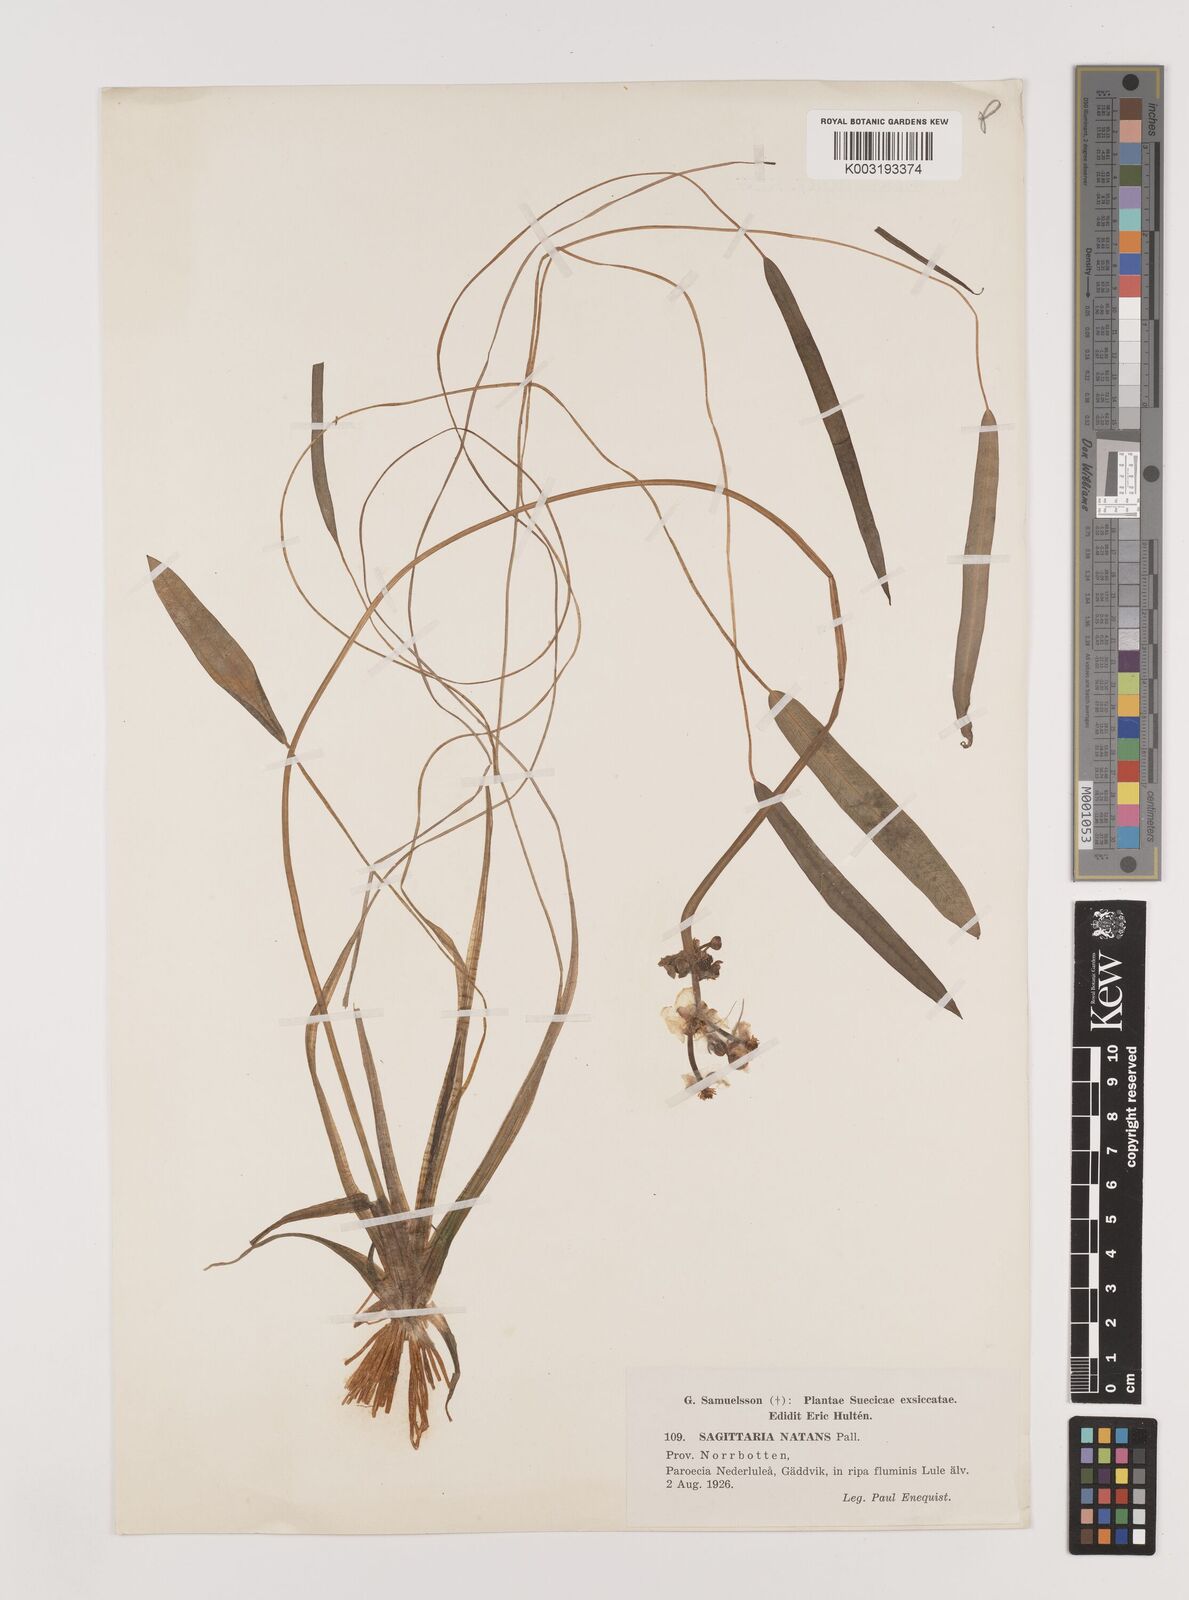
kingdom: Plantae
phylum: Tracheophyta
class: Liliopsida
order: Alismatales
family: Alismataceae
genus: Sagittaria
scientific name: Sagittaria natans
